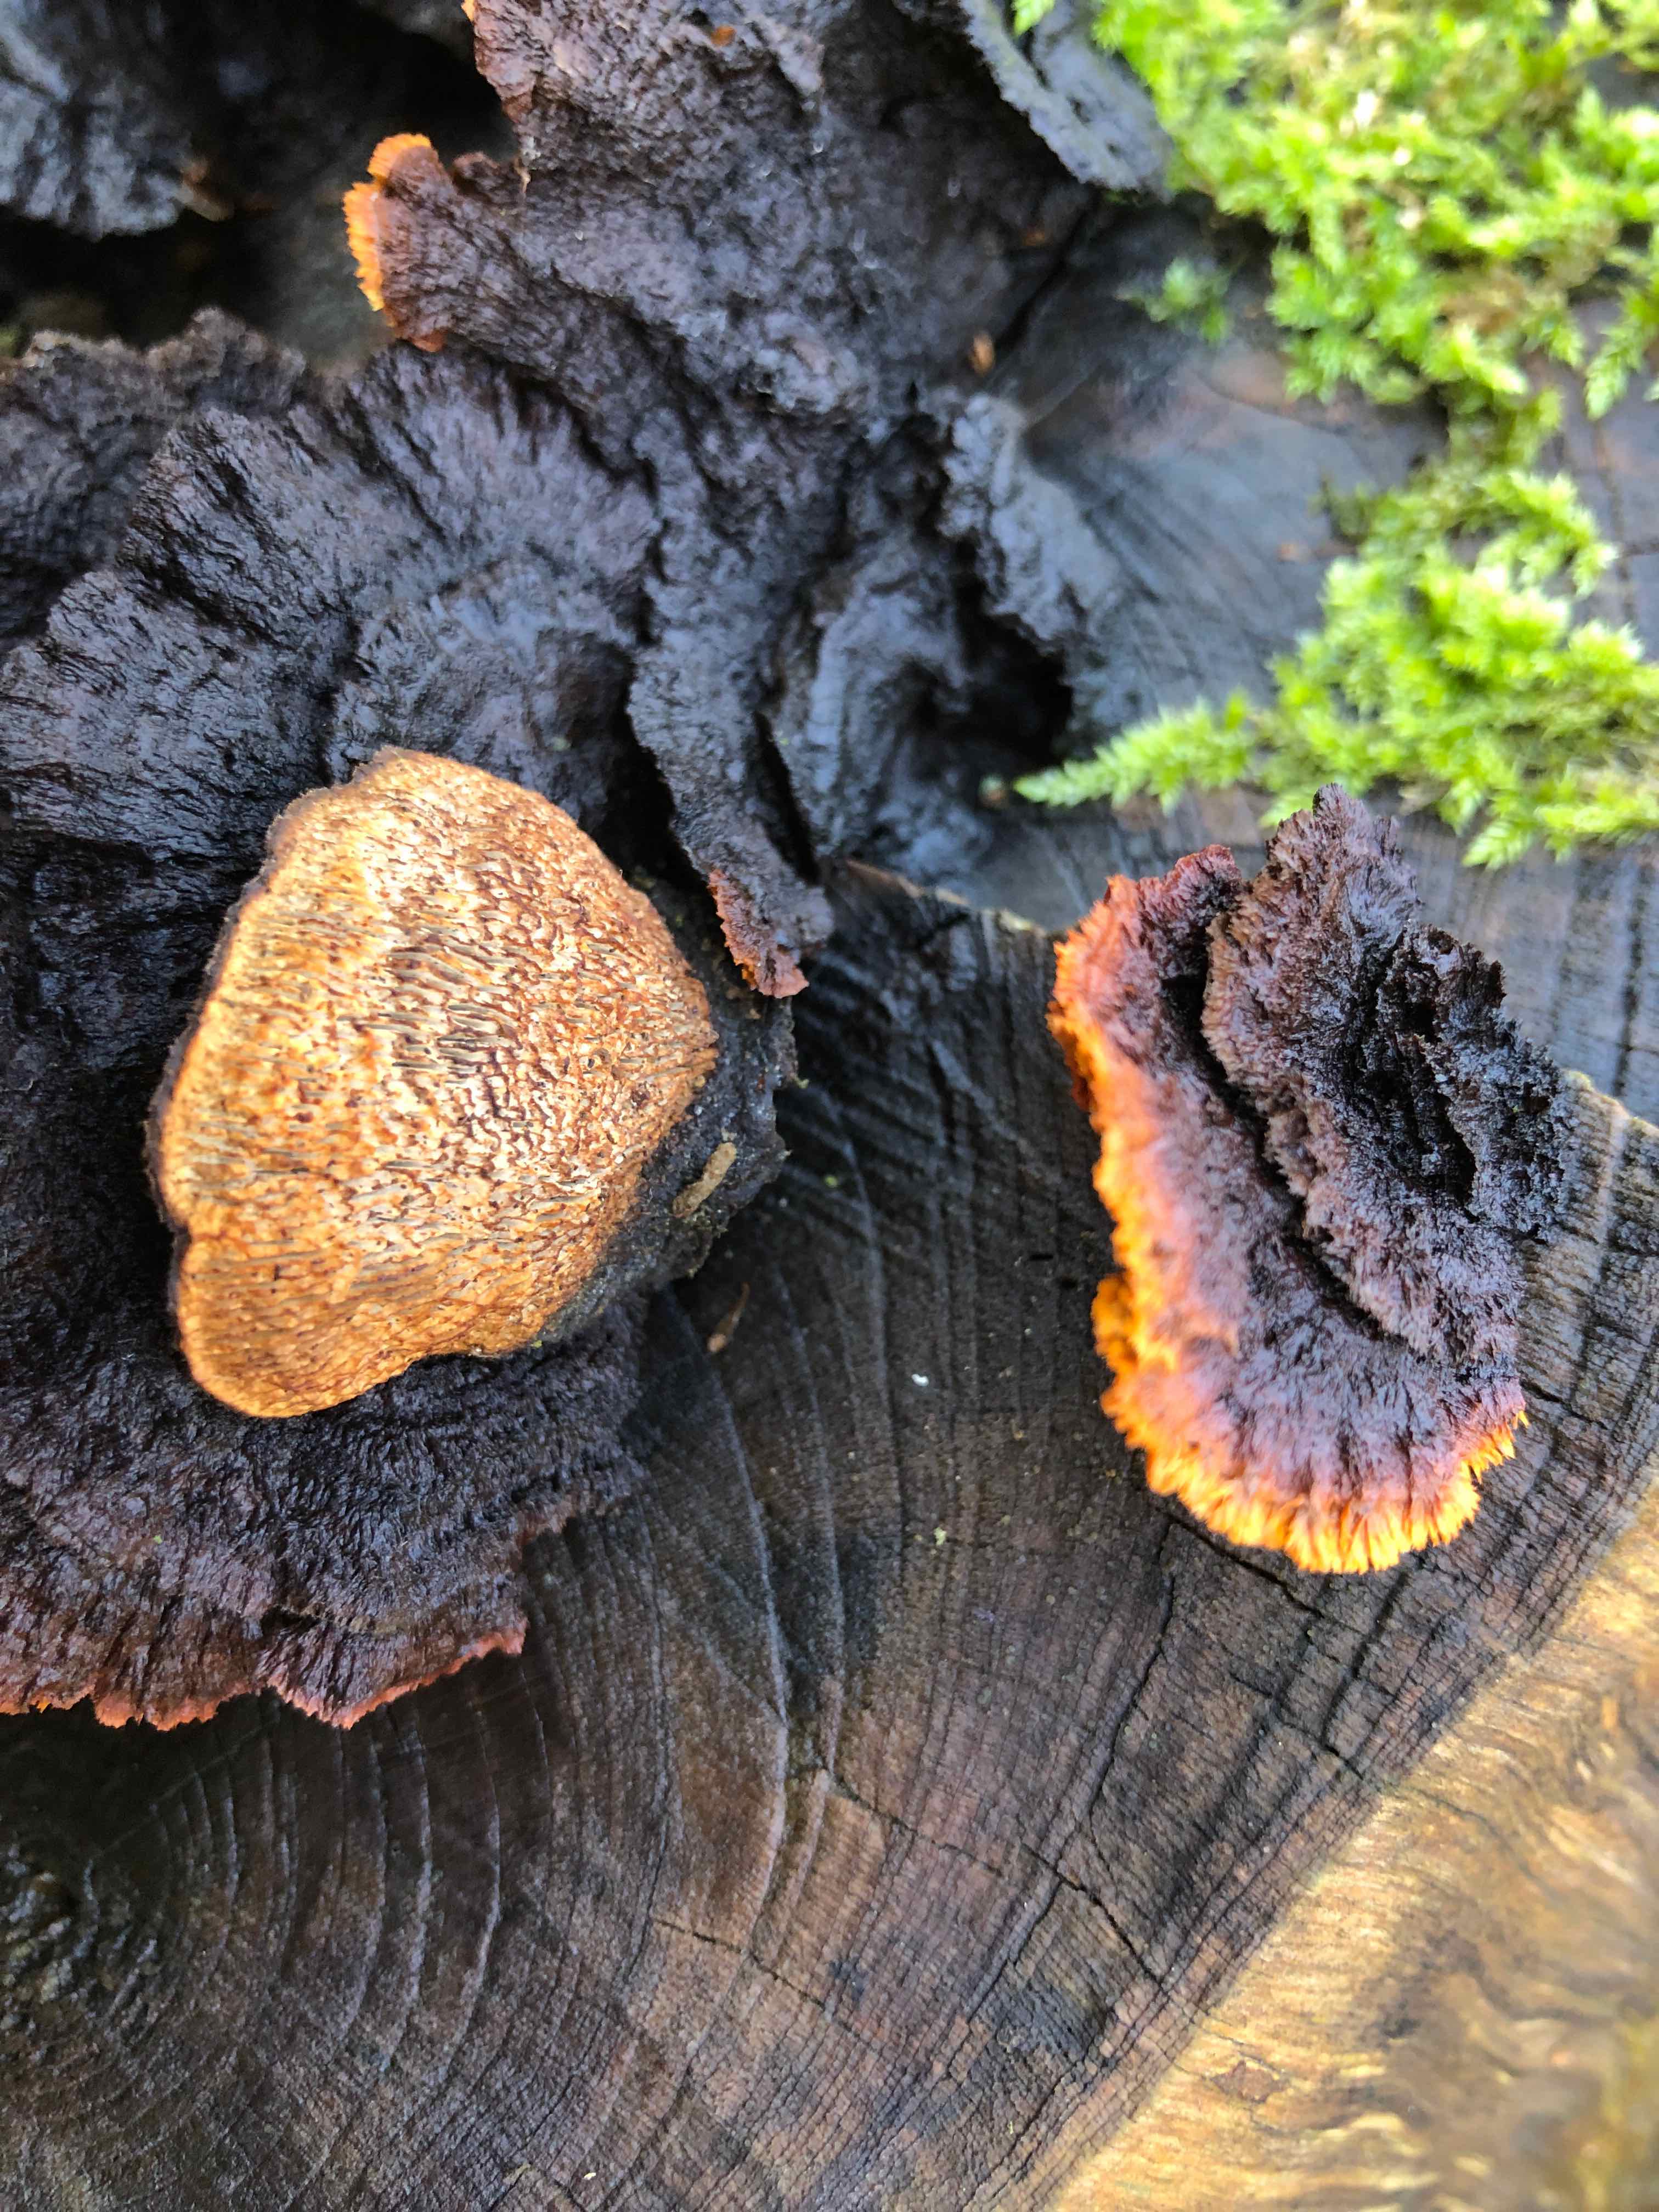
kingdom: Fungi
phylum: Basidiomycota
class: Agaricomycetes
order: Gloeophyllales
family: Gloeophyllaceae
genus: Gloeophyllum
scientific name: Gloeophyllum sepiarium
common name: fyrre-korkhat
